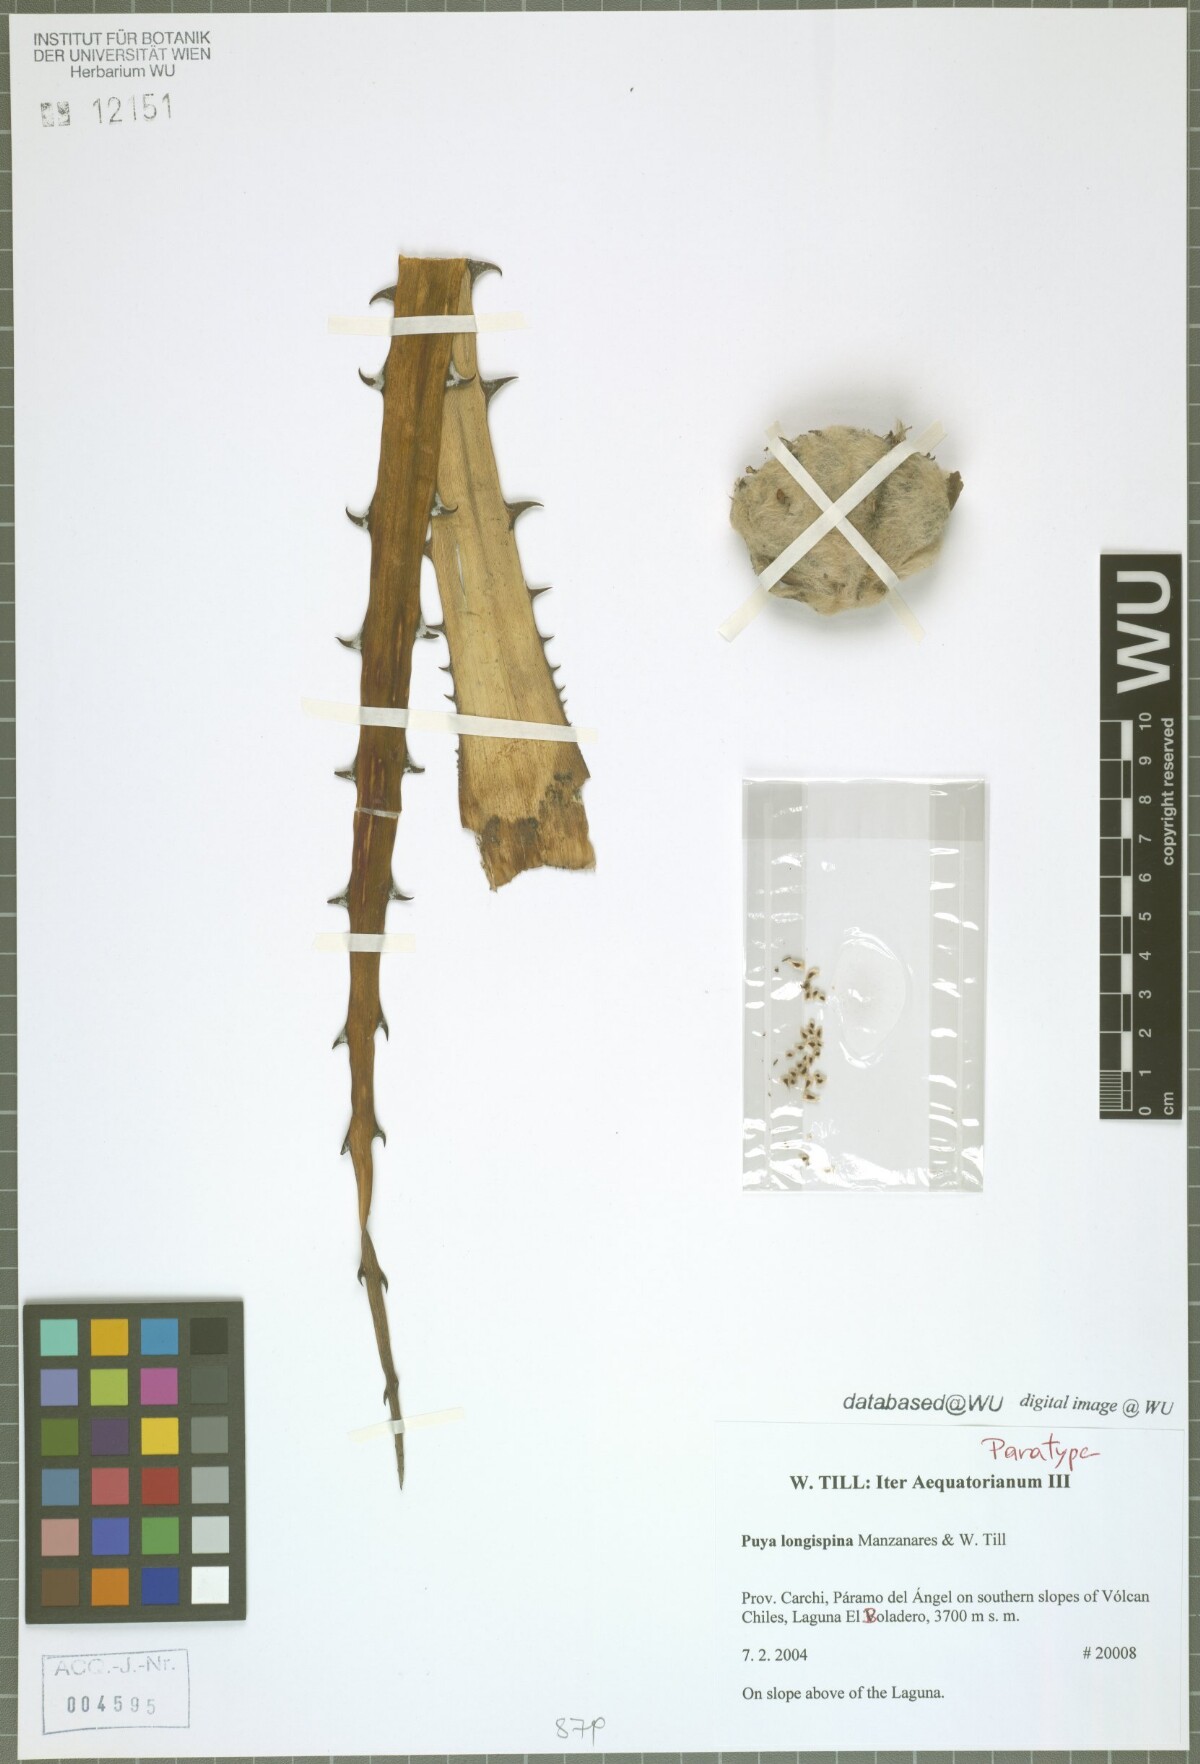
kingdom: Plantae
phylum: Tracheophyta
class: Liliopsida
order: Poales
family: Bromeliaceae
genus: Puya
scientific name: Puya longispina
